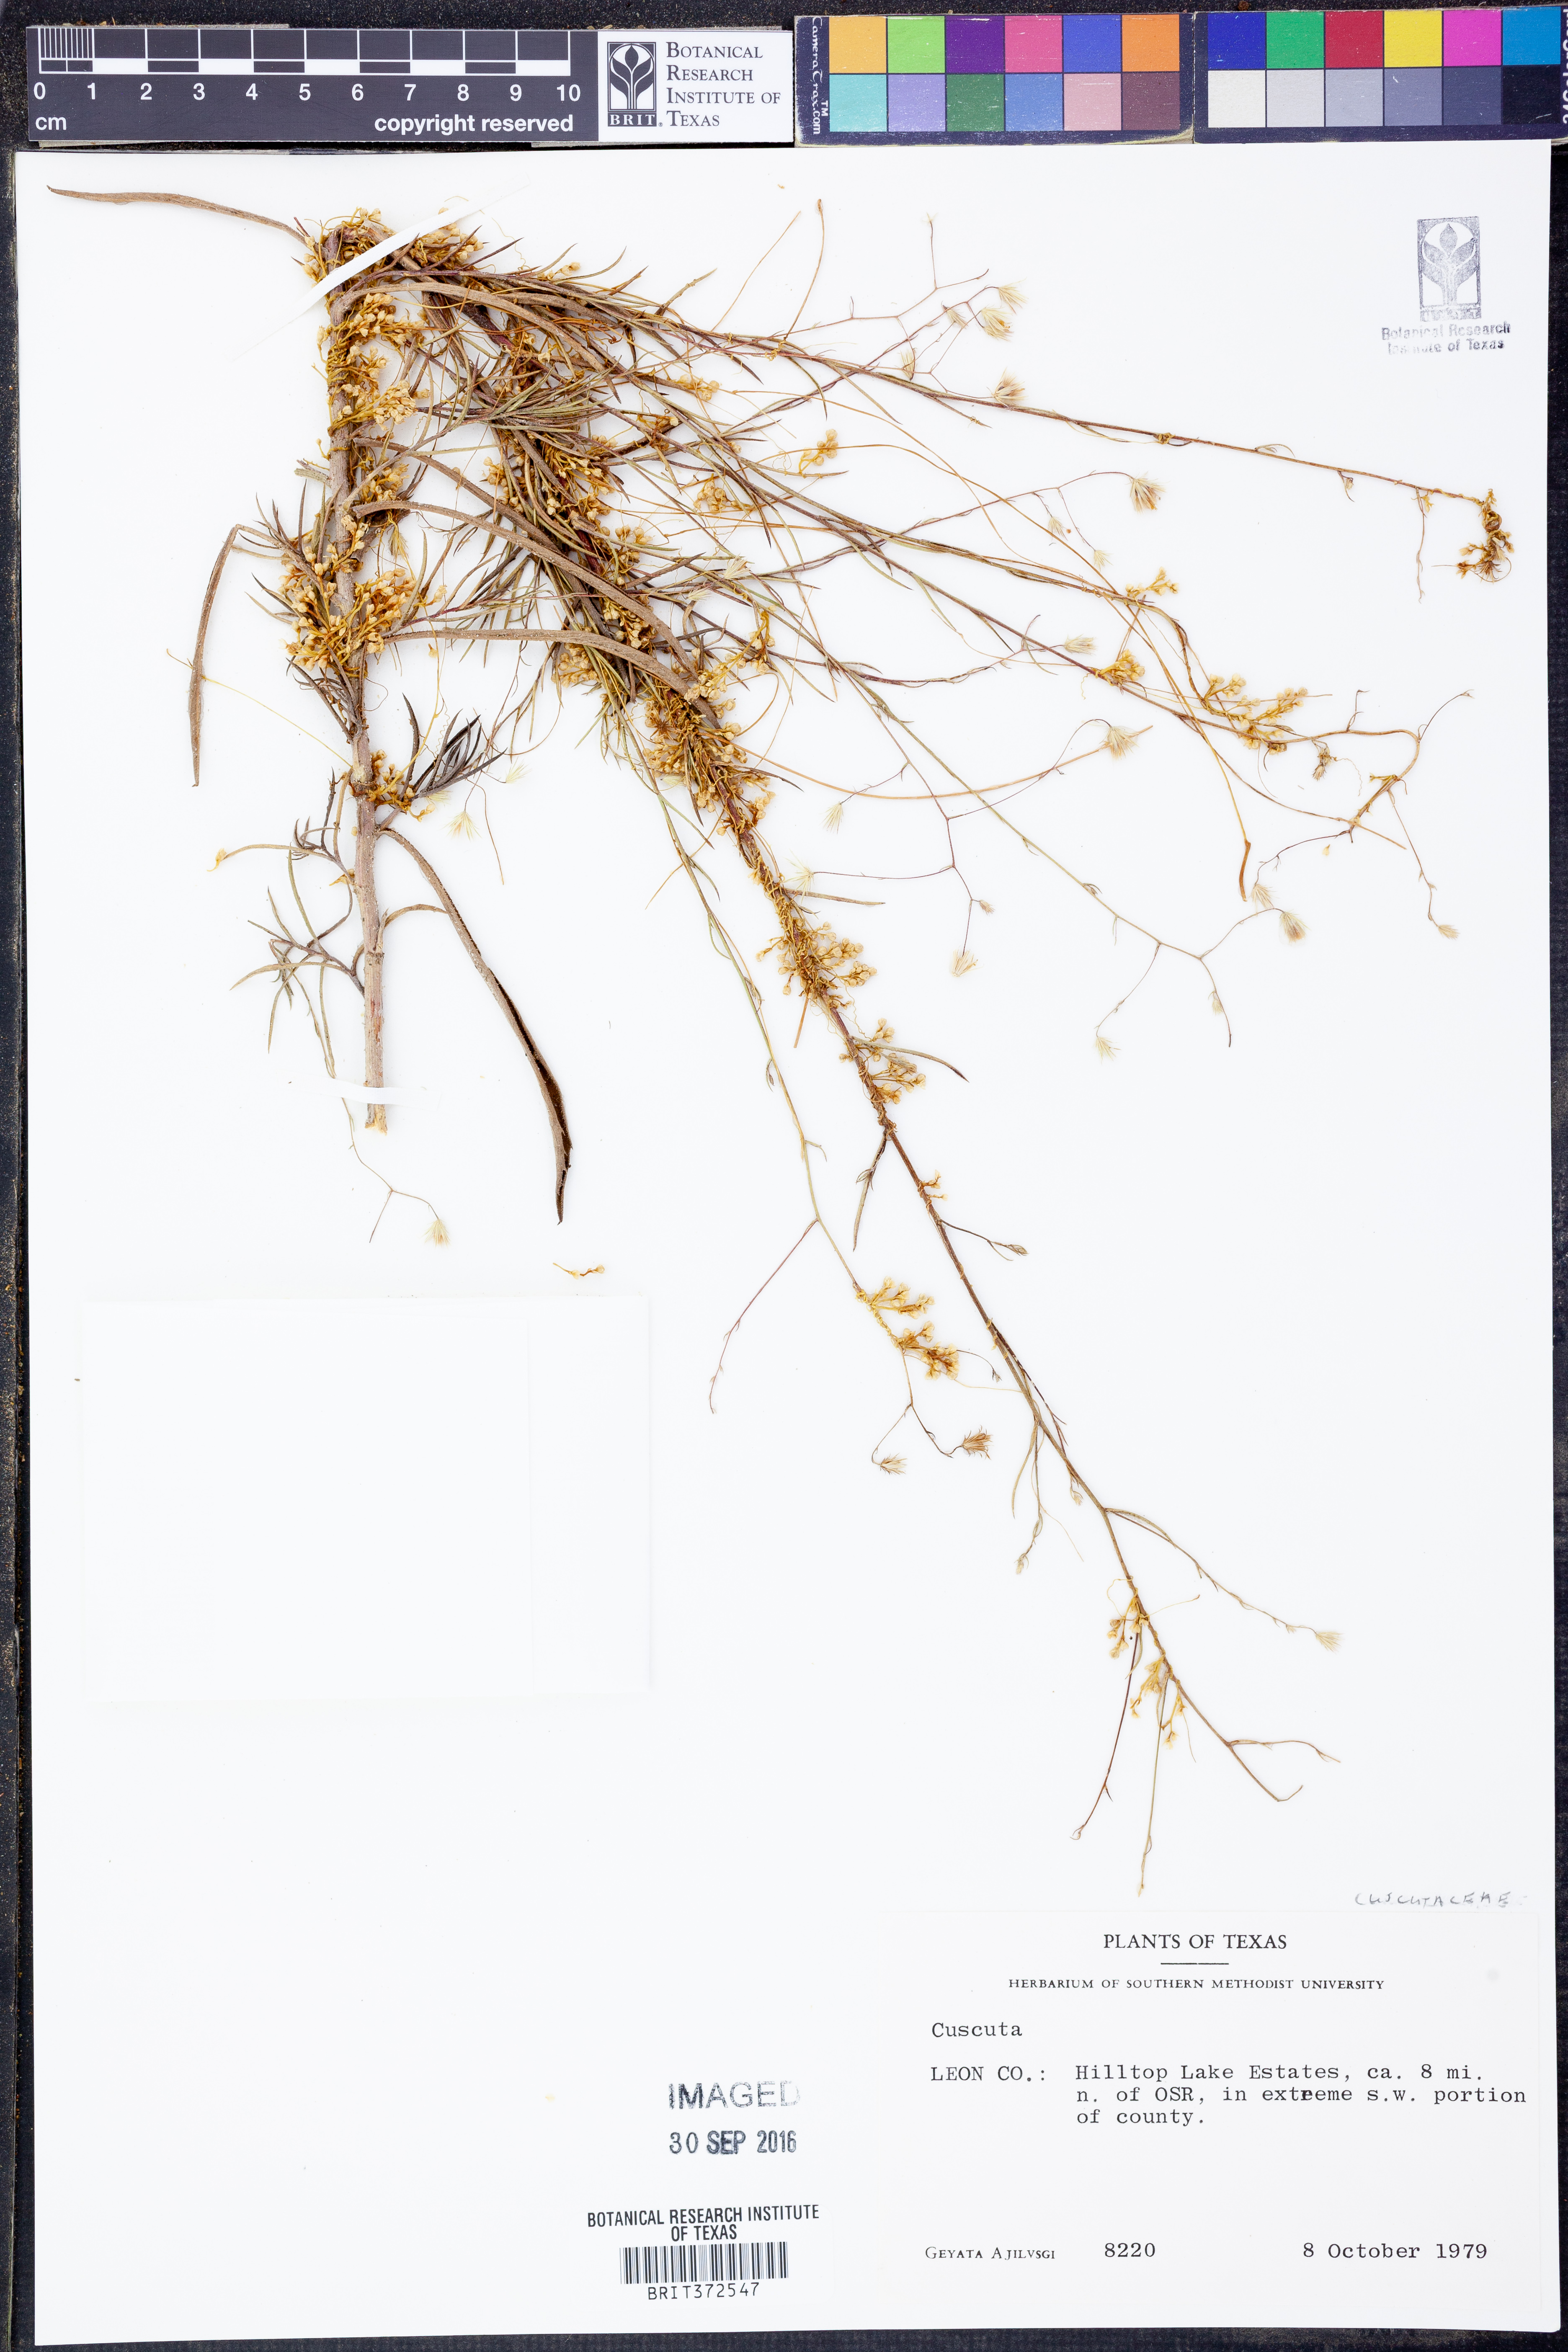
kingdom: Plantae
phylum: Tracheophyta
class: Magnoliopsida
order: Solanales
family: Convolvulaceae
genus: Cuscuta
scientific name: Cuscuta
